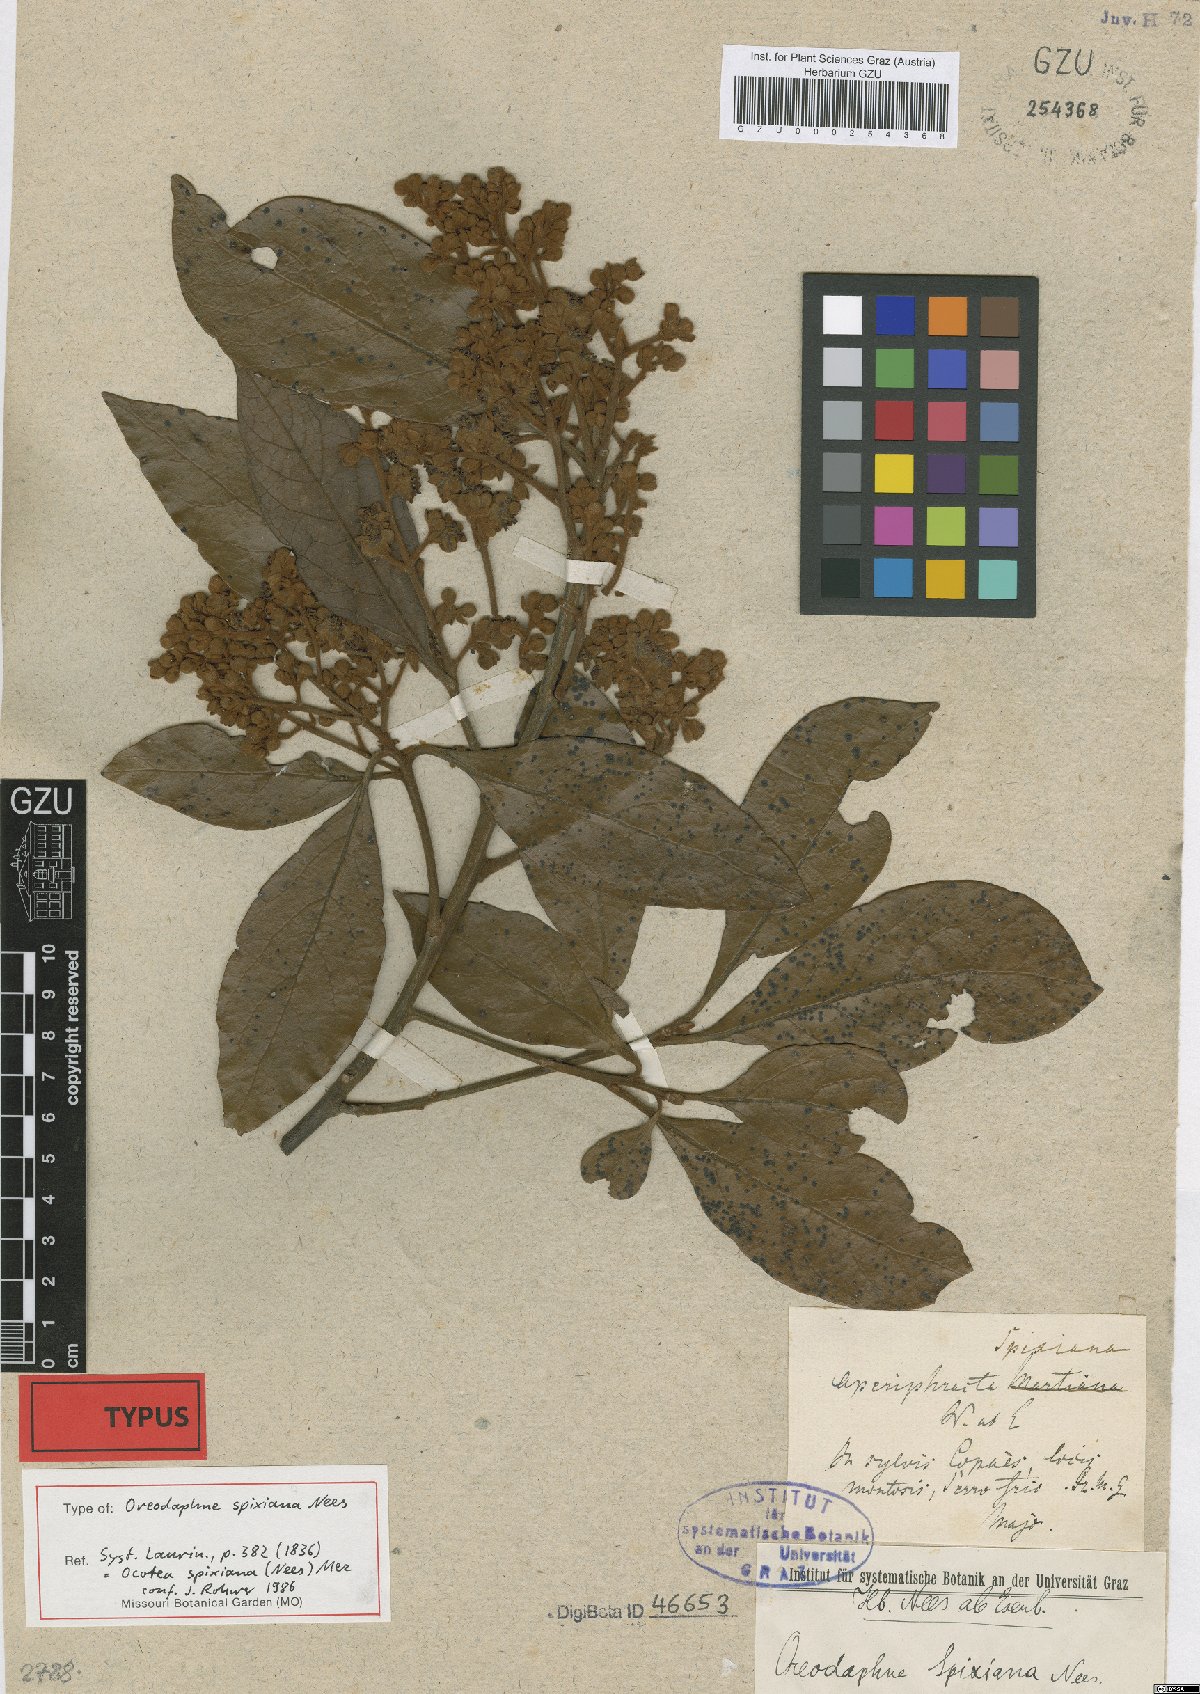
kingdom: Plantae
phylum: Tracheophyta
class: Magnoliopsida
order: Laurales
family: Lauraceae
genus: Ocotea
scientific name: Ocotea spixiana
